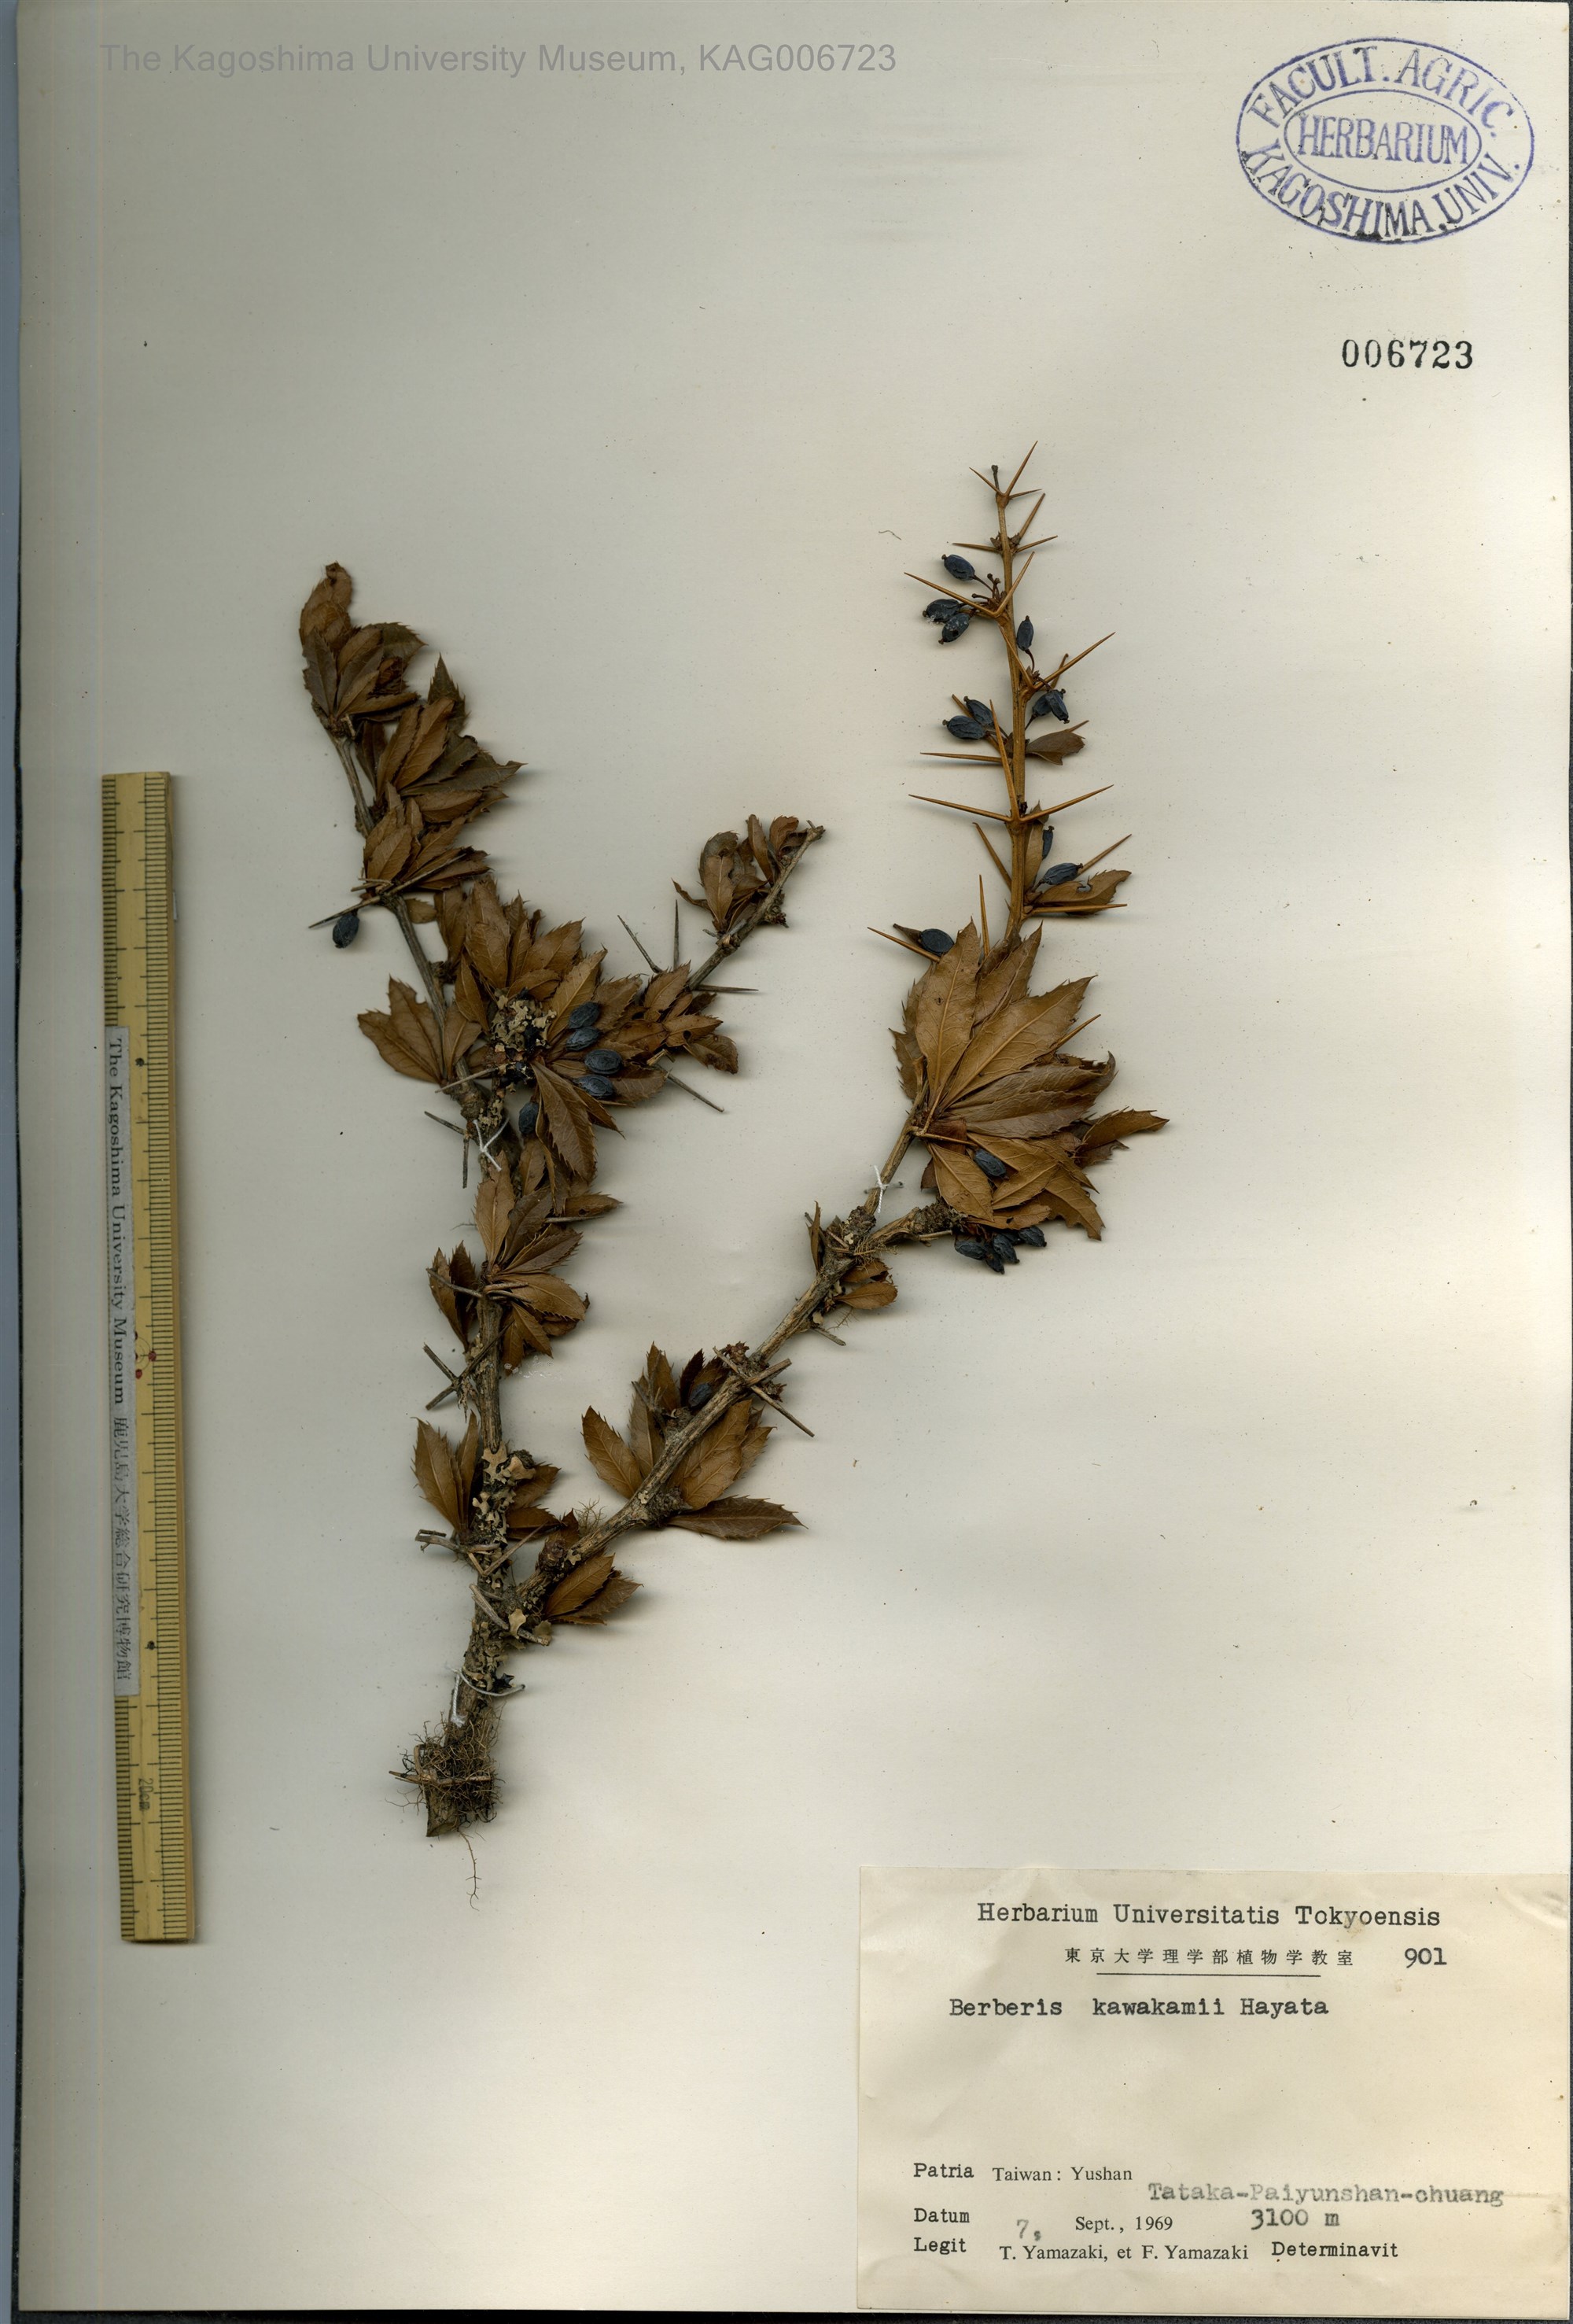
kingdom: Plantae
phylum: Tracheophyta
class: Magnoliopsida
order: Ranunculales
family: Berberidaceae
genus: Berberis
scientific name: Berberis kawakamii
